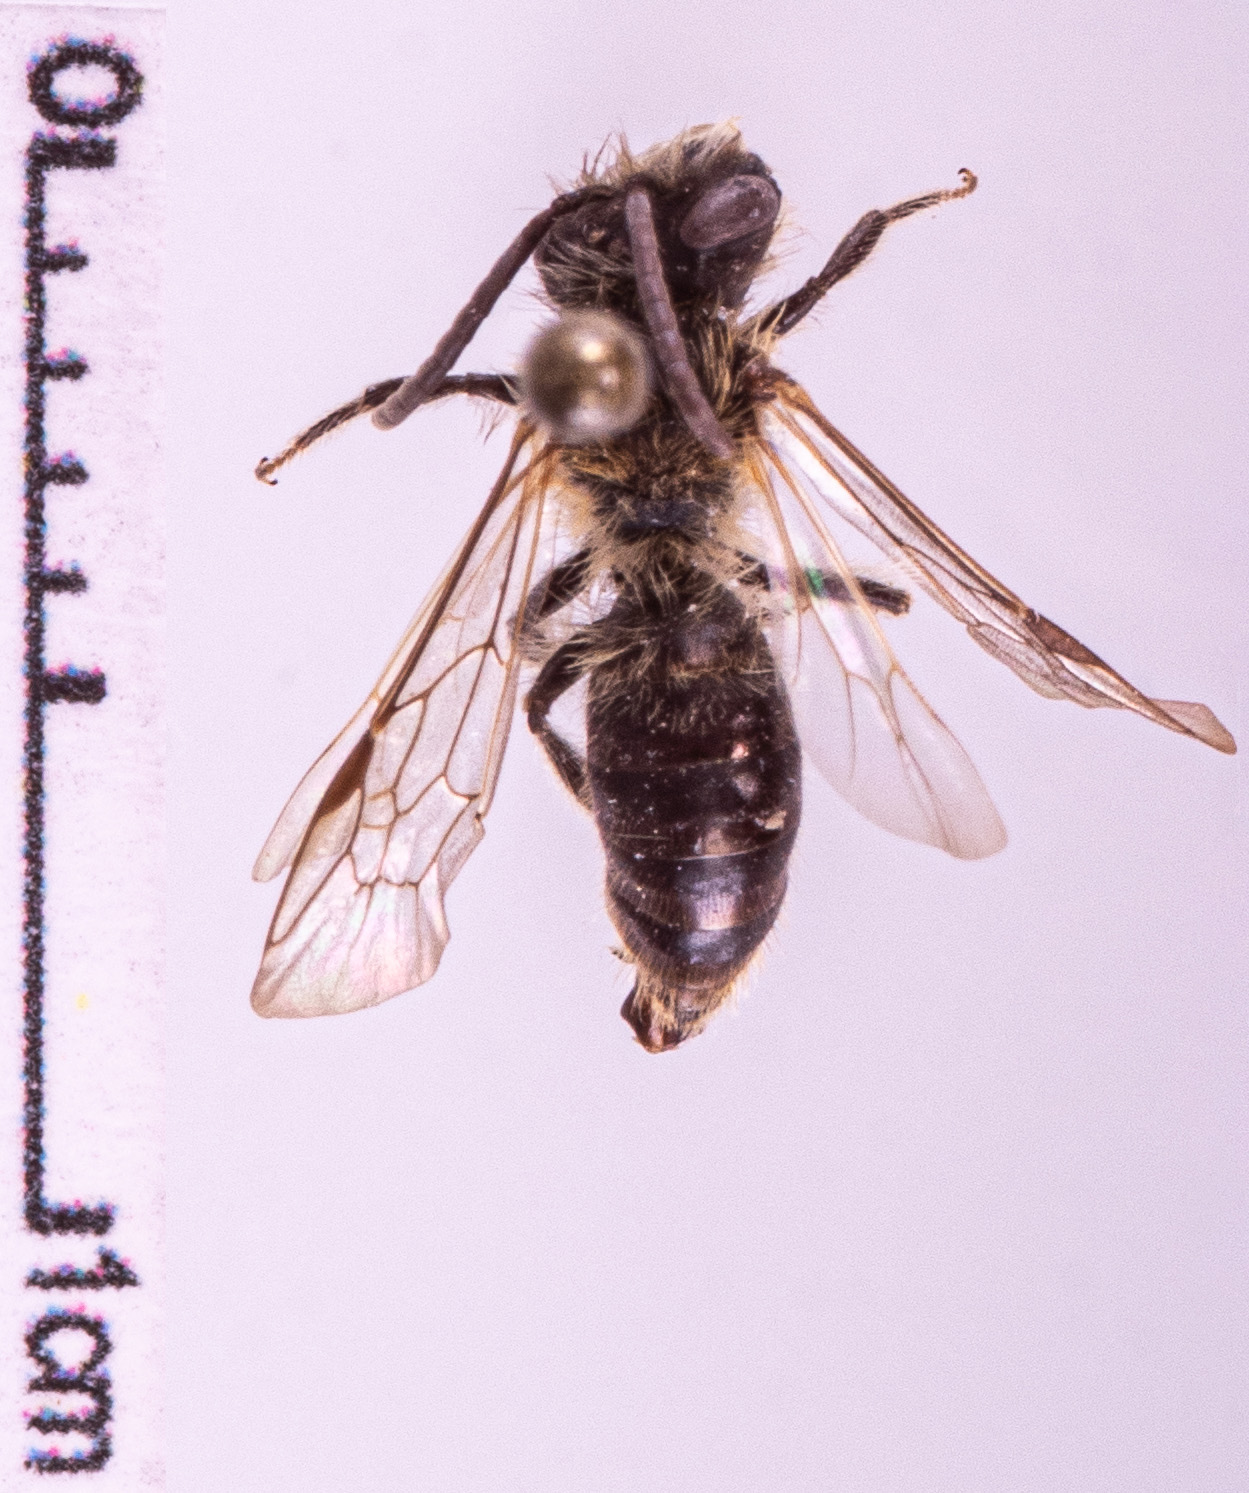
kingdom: Animalia
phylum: Arthropoda
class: Insecta
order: Hymenoptera
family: Andrenidae
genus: Andrena
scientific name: Andrena helvola
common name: Coppice mining bee
